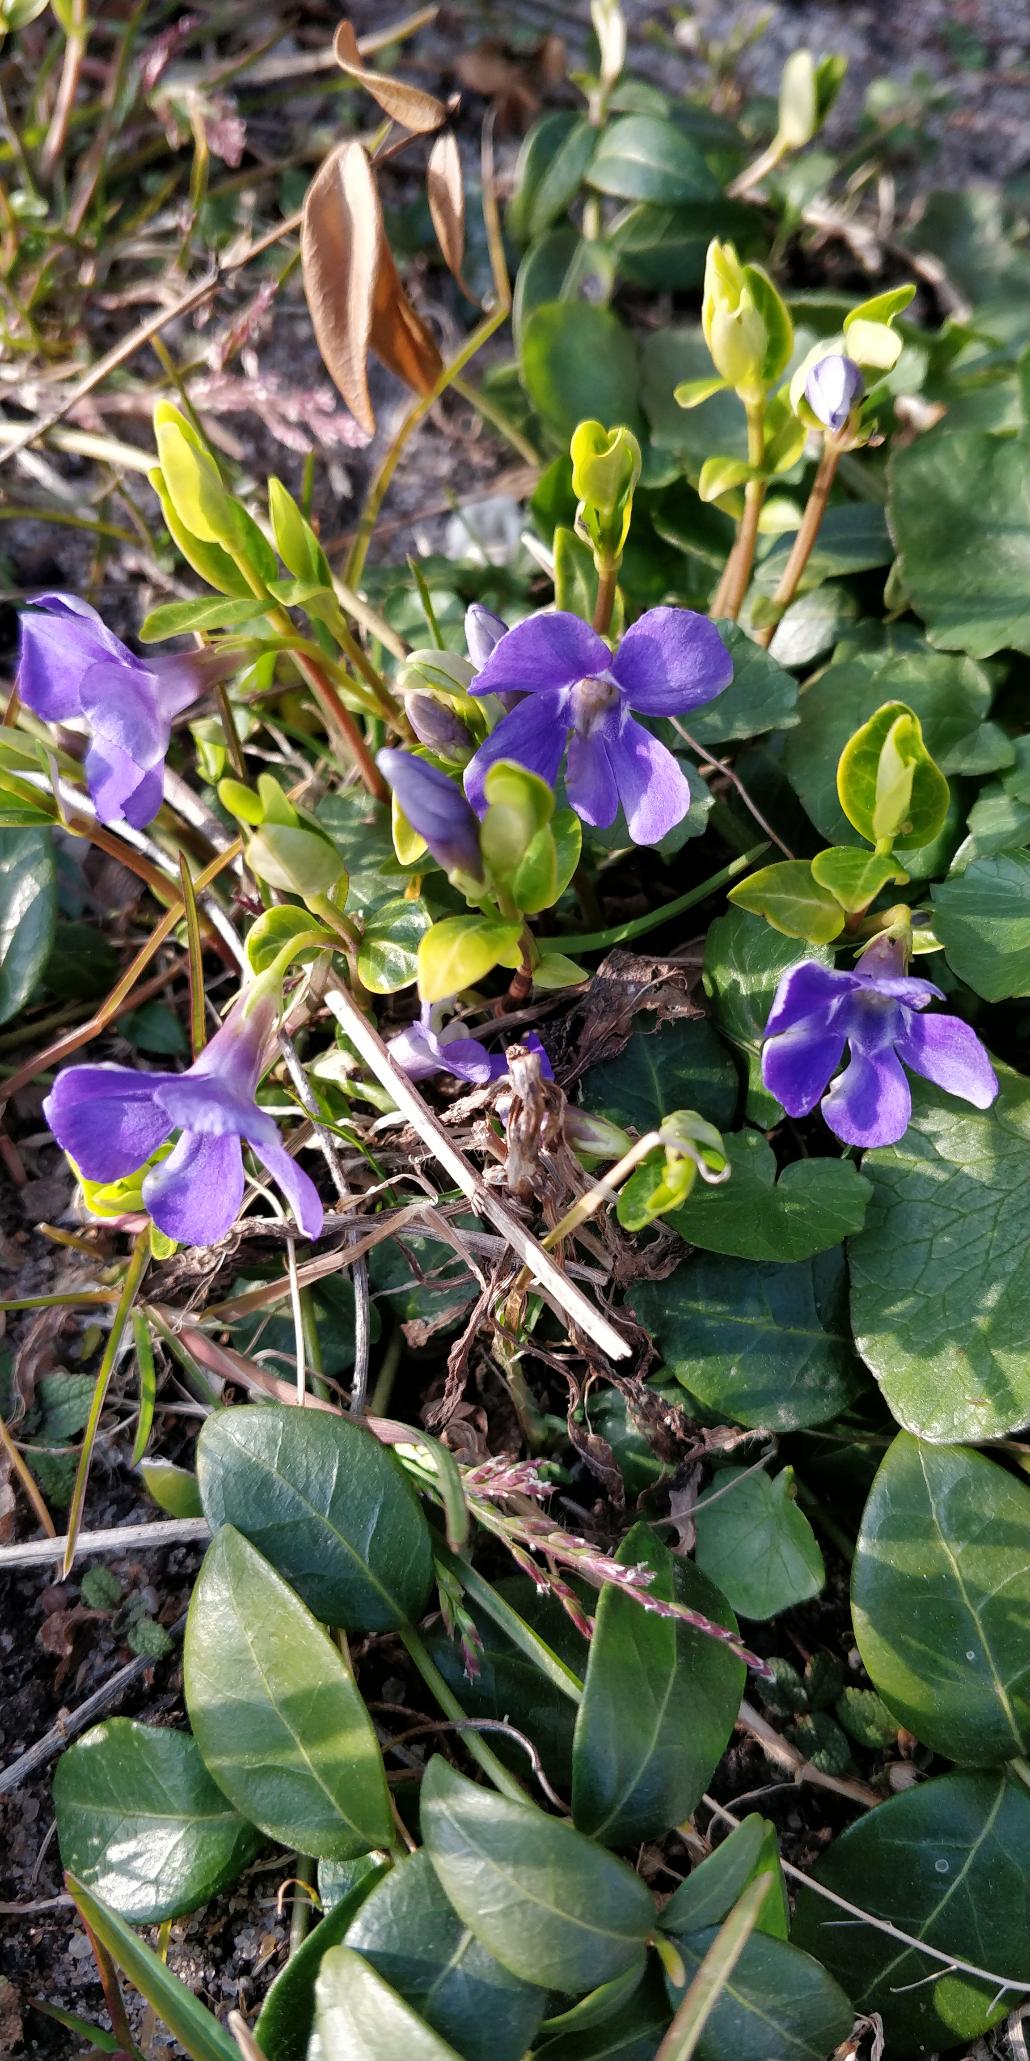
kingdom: Plantae
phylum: Tracheophyta
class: Magnoliopsida
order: Gentianales
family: Apocynaceae
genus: Vinca
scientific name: Vinca minor
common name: Liden singrøn
